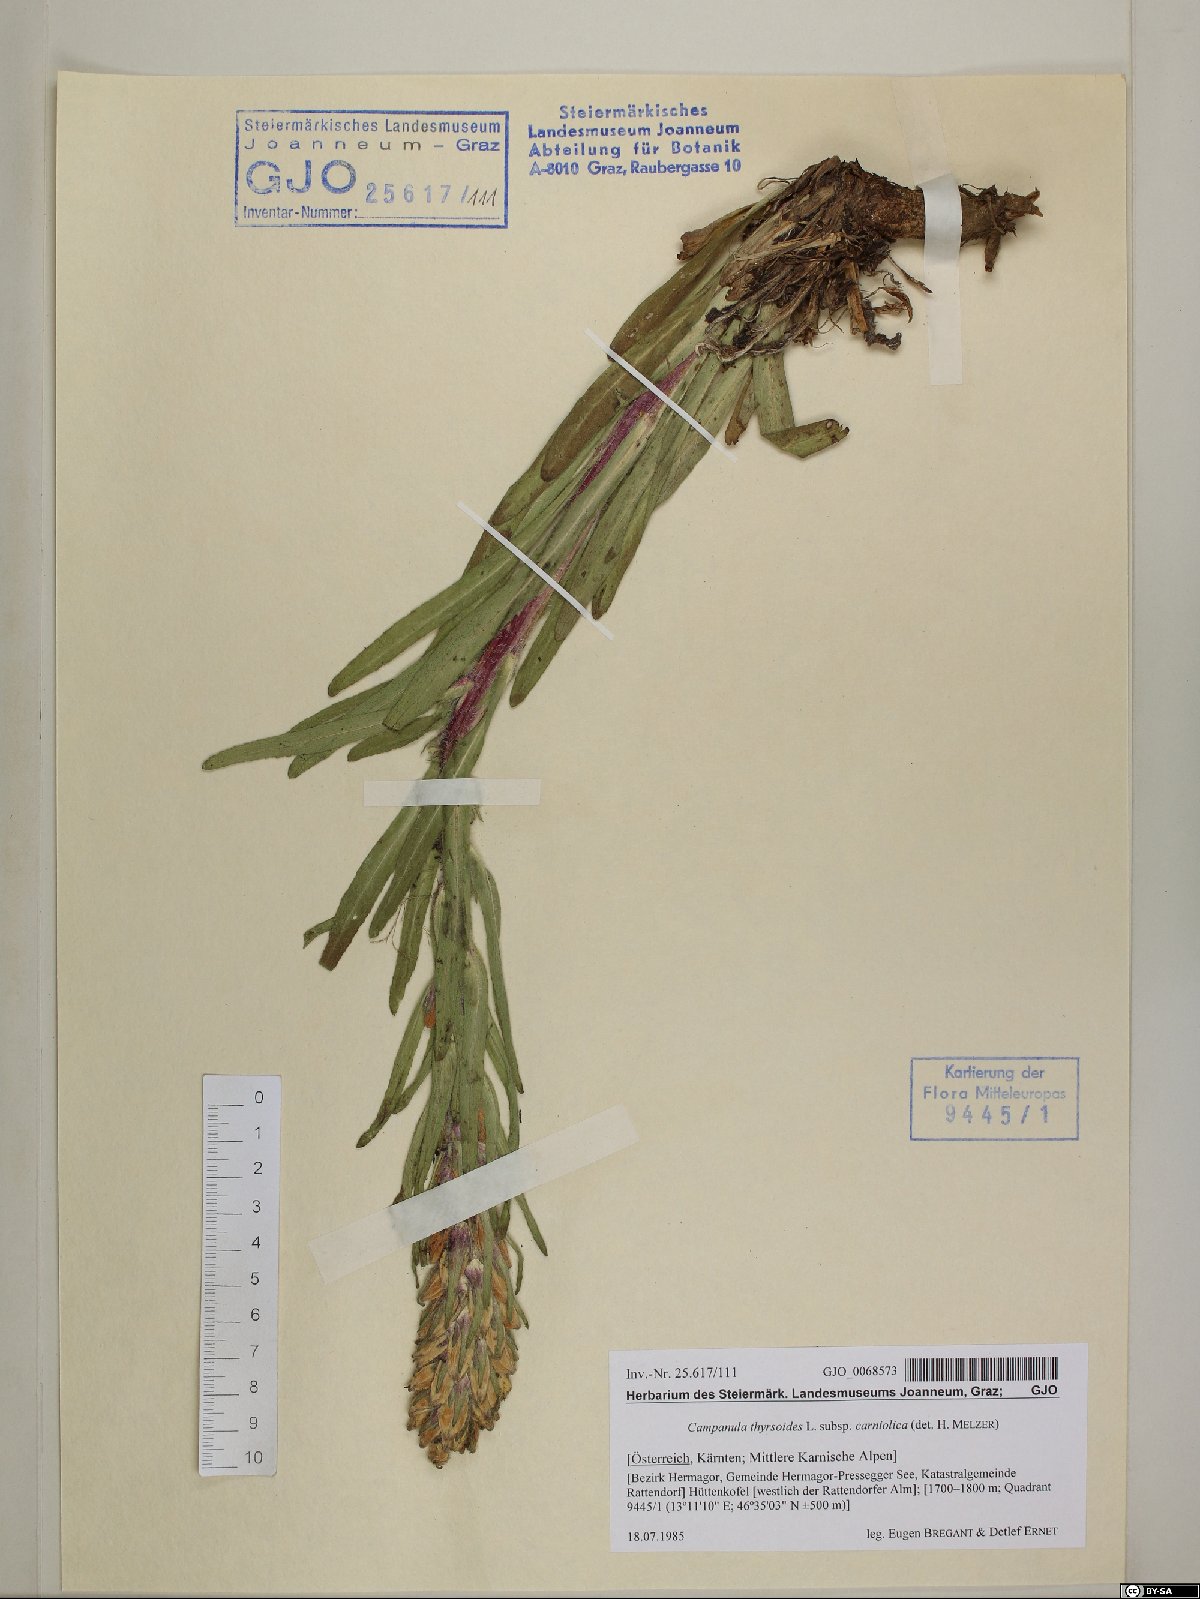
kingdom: Plantae
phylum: Tracheophyta
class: Magnoliopsida
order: Asterales
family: Campanulaceae
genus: Campanula
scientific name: Campanula thyrsoides
